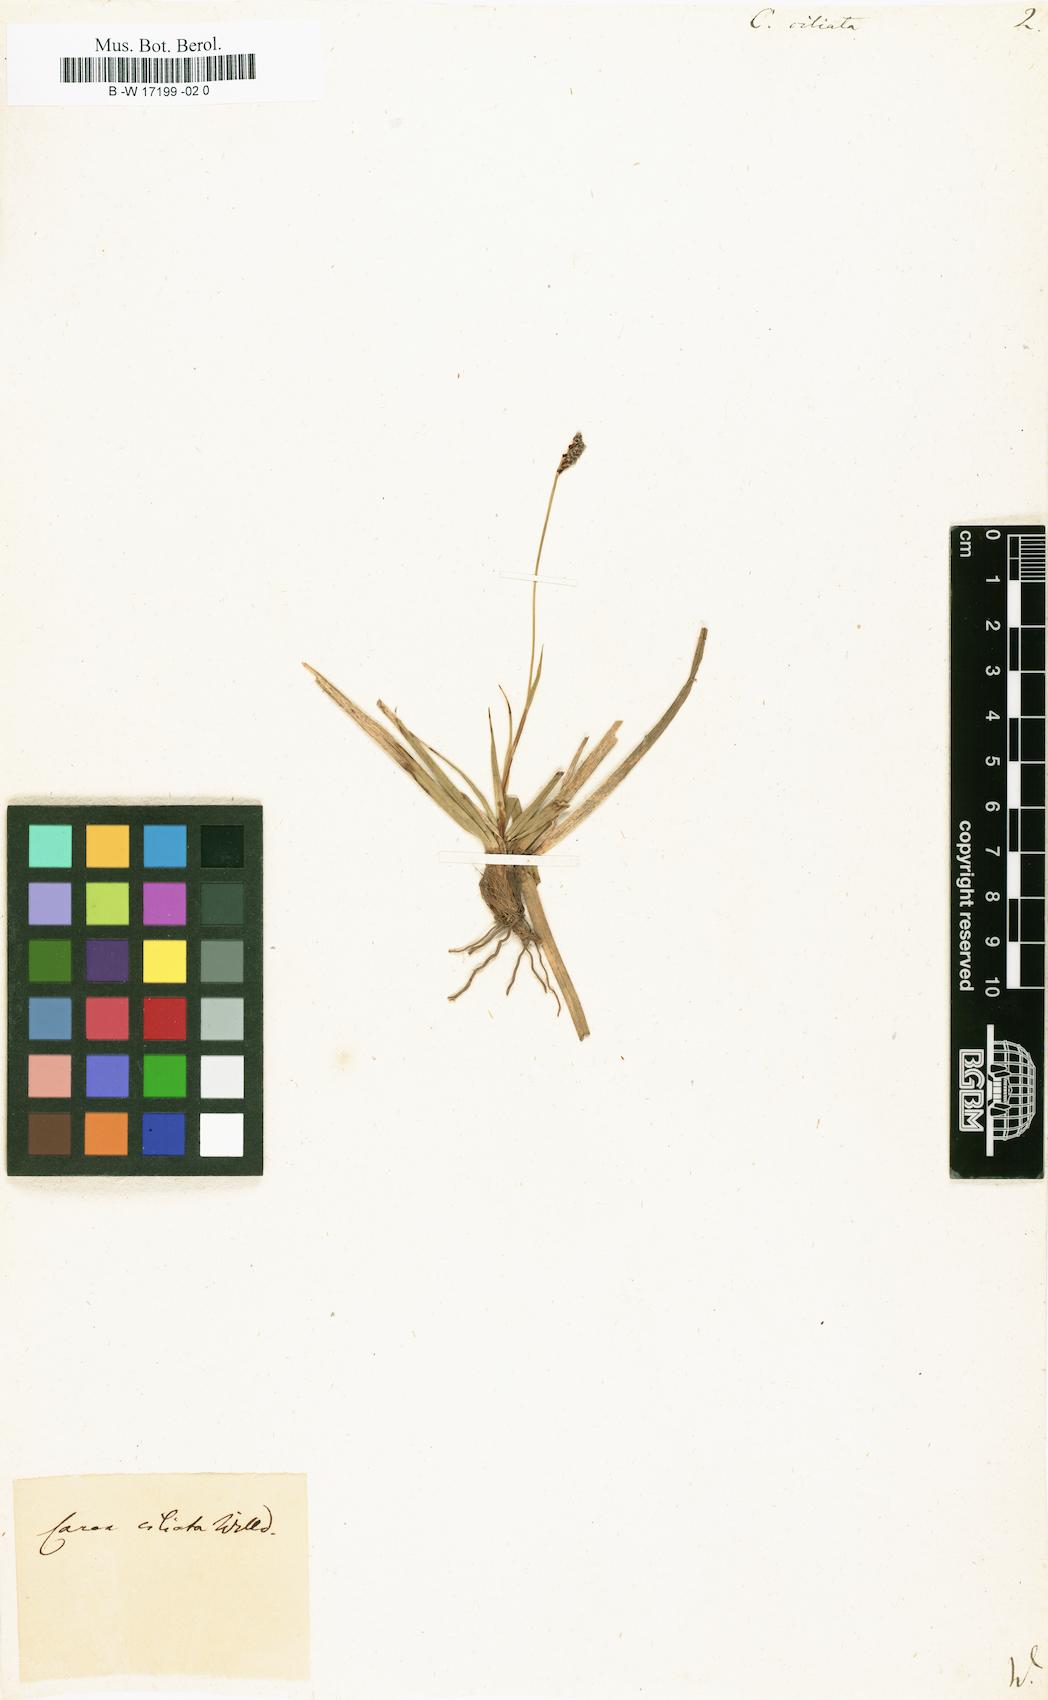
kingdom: Plantae
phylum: Tracheophyta
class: Liliopsida
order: Poales
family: Cyperaceae
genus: Carex
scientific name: Carex ericetorum
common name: Rare spring-sedge
